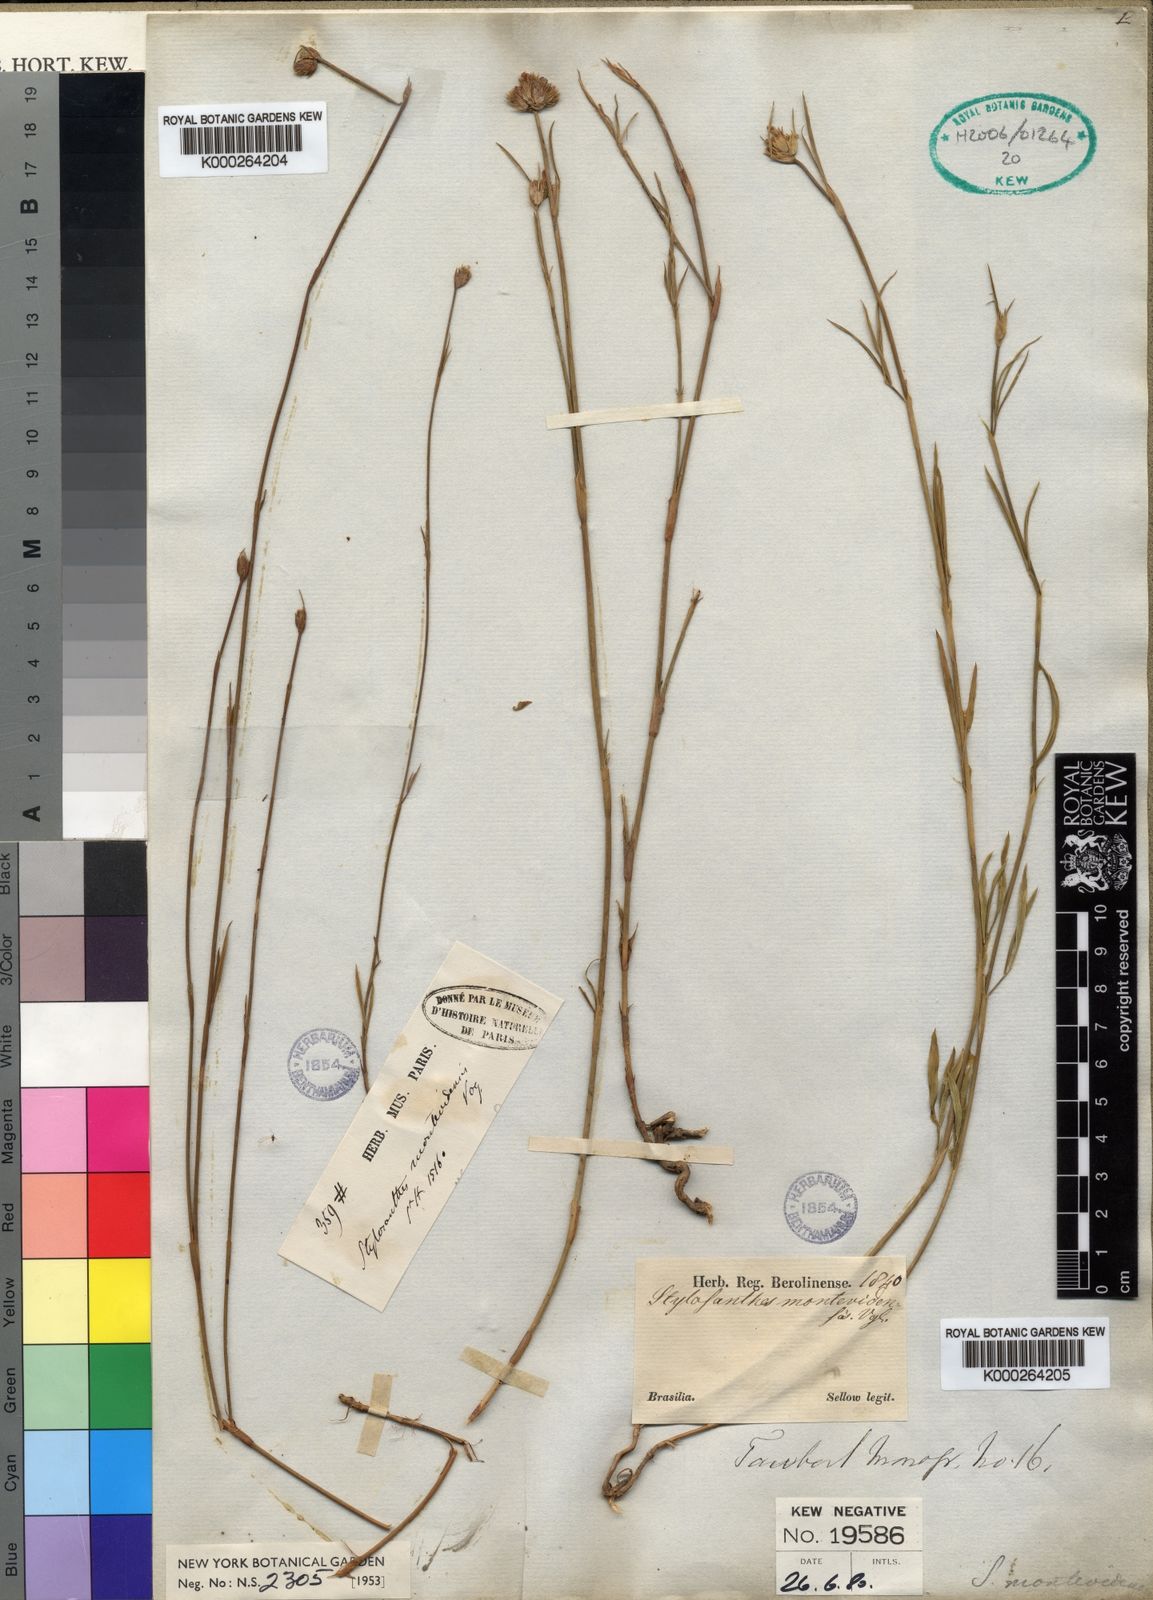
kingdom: Plantae
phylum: Tracheophyta
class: Magnoliopsida
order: Fabales
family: Fabaceae
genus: Stylosanthes
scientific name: Stylosanthes montevidensis
